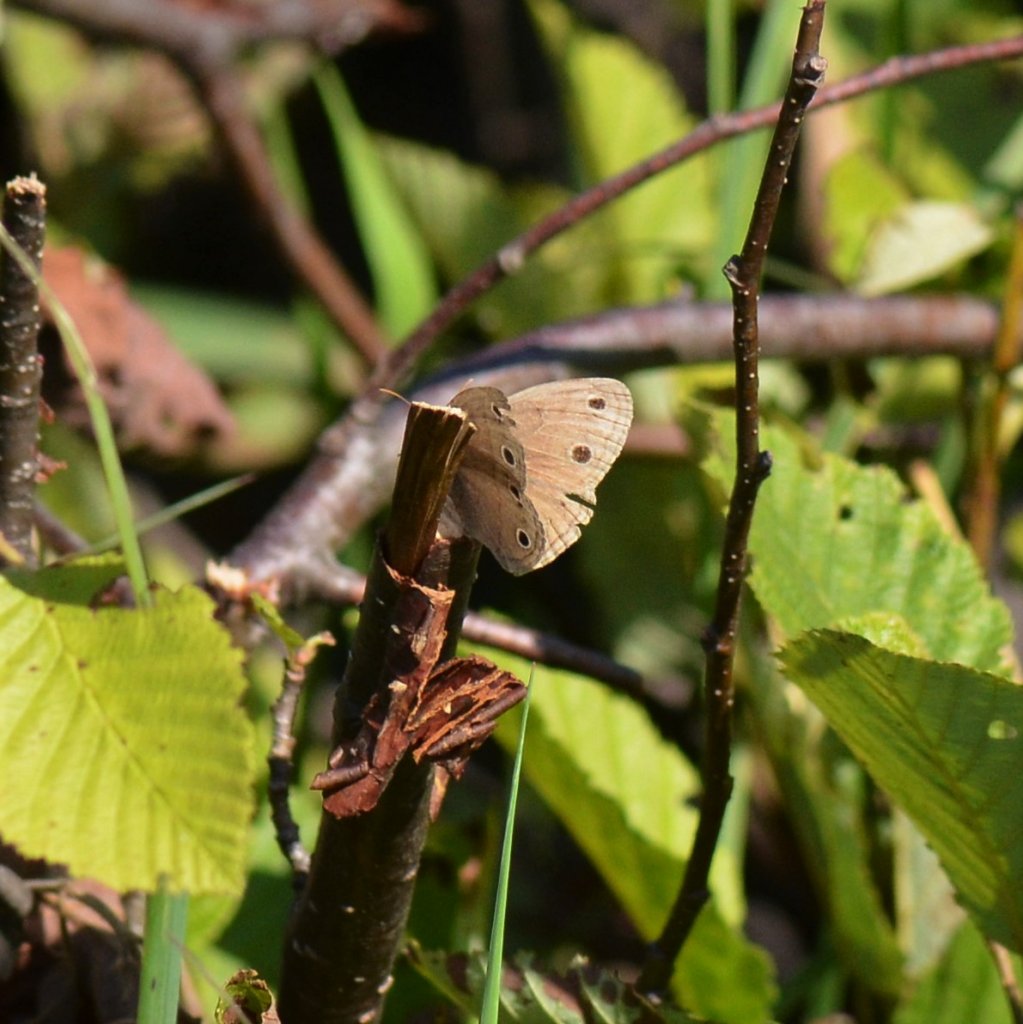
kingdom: Animalia
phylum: Arthropoda
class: Insecta
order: Lepidoptera
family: Nymphalidae
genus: Euptychia
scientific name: Euptychia cymela
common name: Little Wood Satyr
